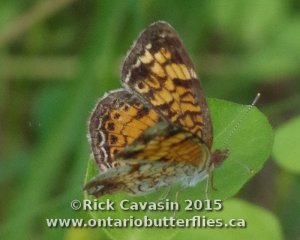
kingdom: Animalia
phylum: Arthropoda
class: Insecta
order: Lepidoptera
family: Nymphalidae
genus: Phyciodes
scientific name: Phyciodes tharos
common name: Pearl Crescent
